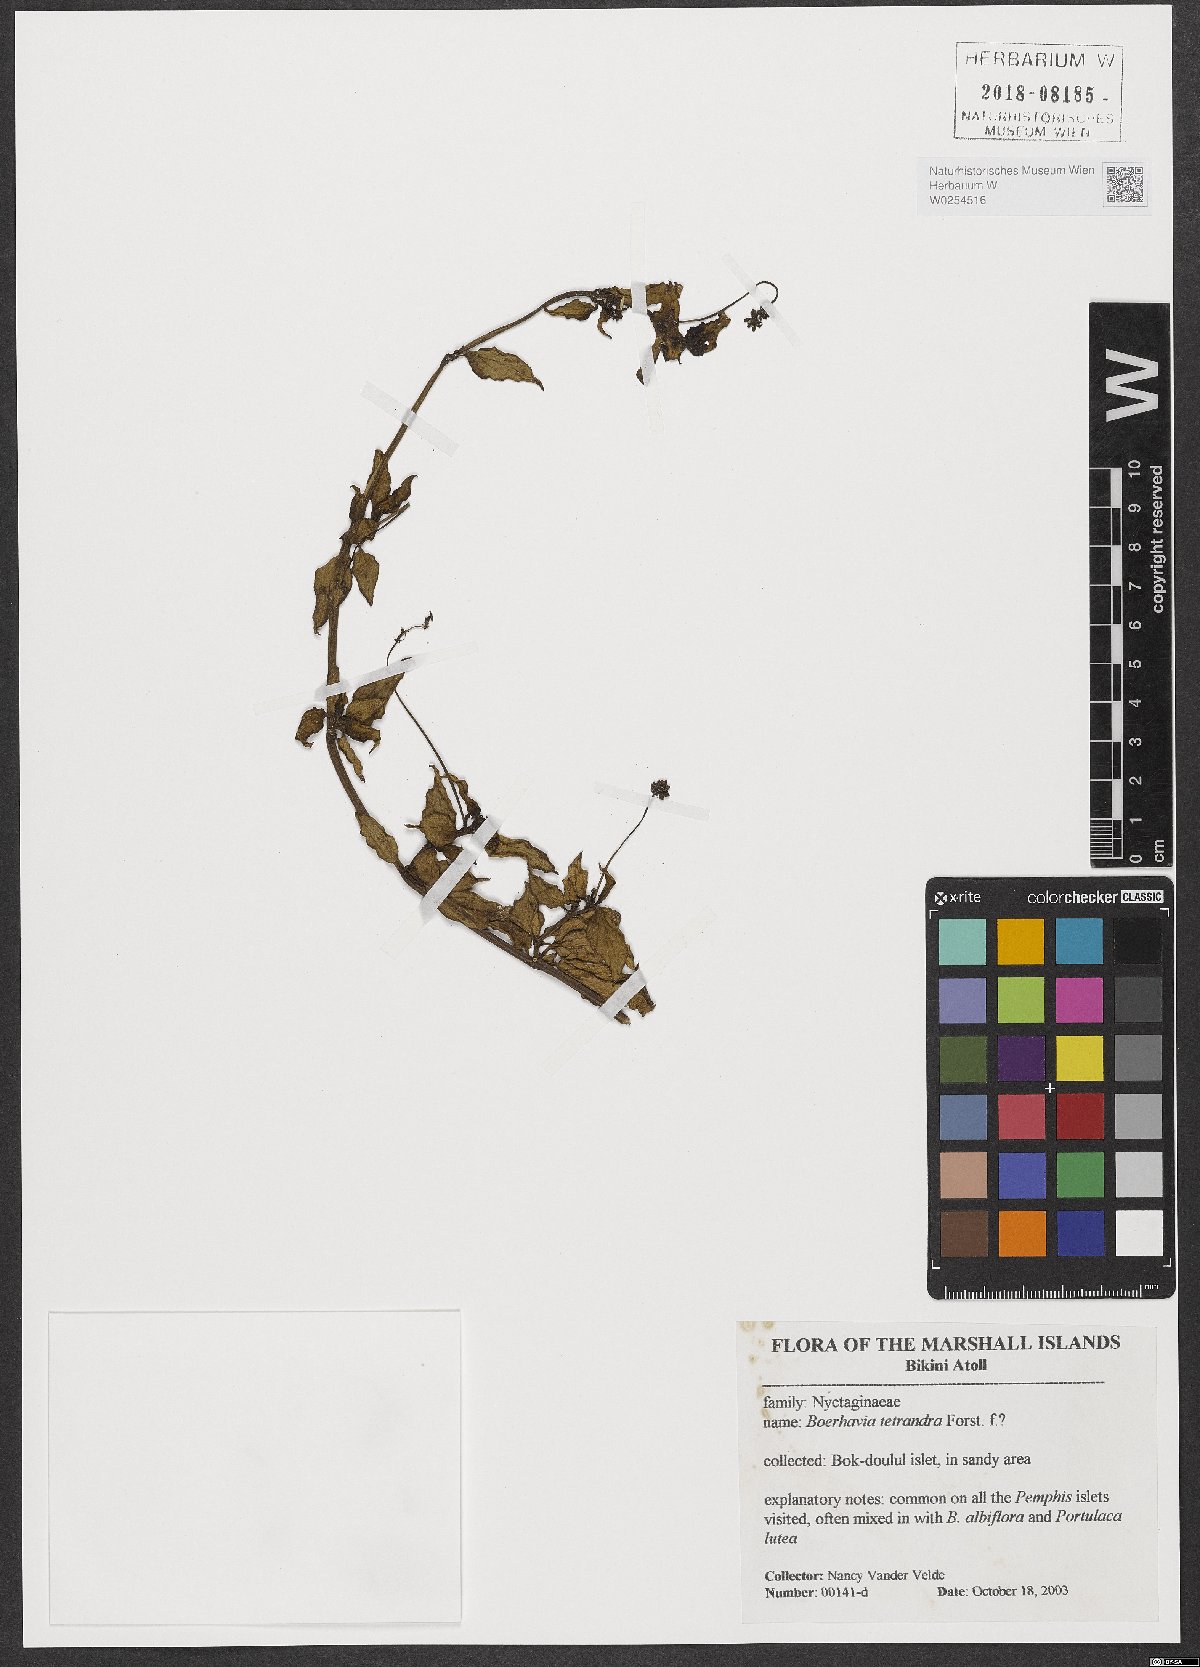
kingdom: Plantae
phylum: Tracheophyta
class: Magnoliopsida
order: Caryophyllales
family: Nyctaginaceae
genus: Boerhavia
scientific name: Boerhavia tetrandra
